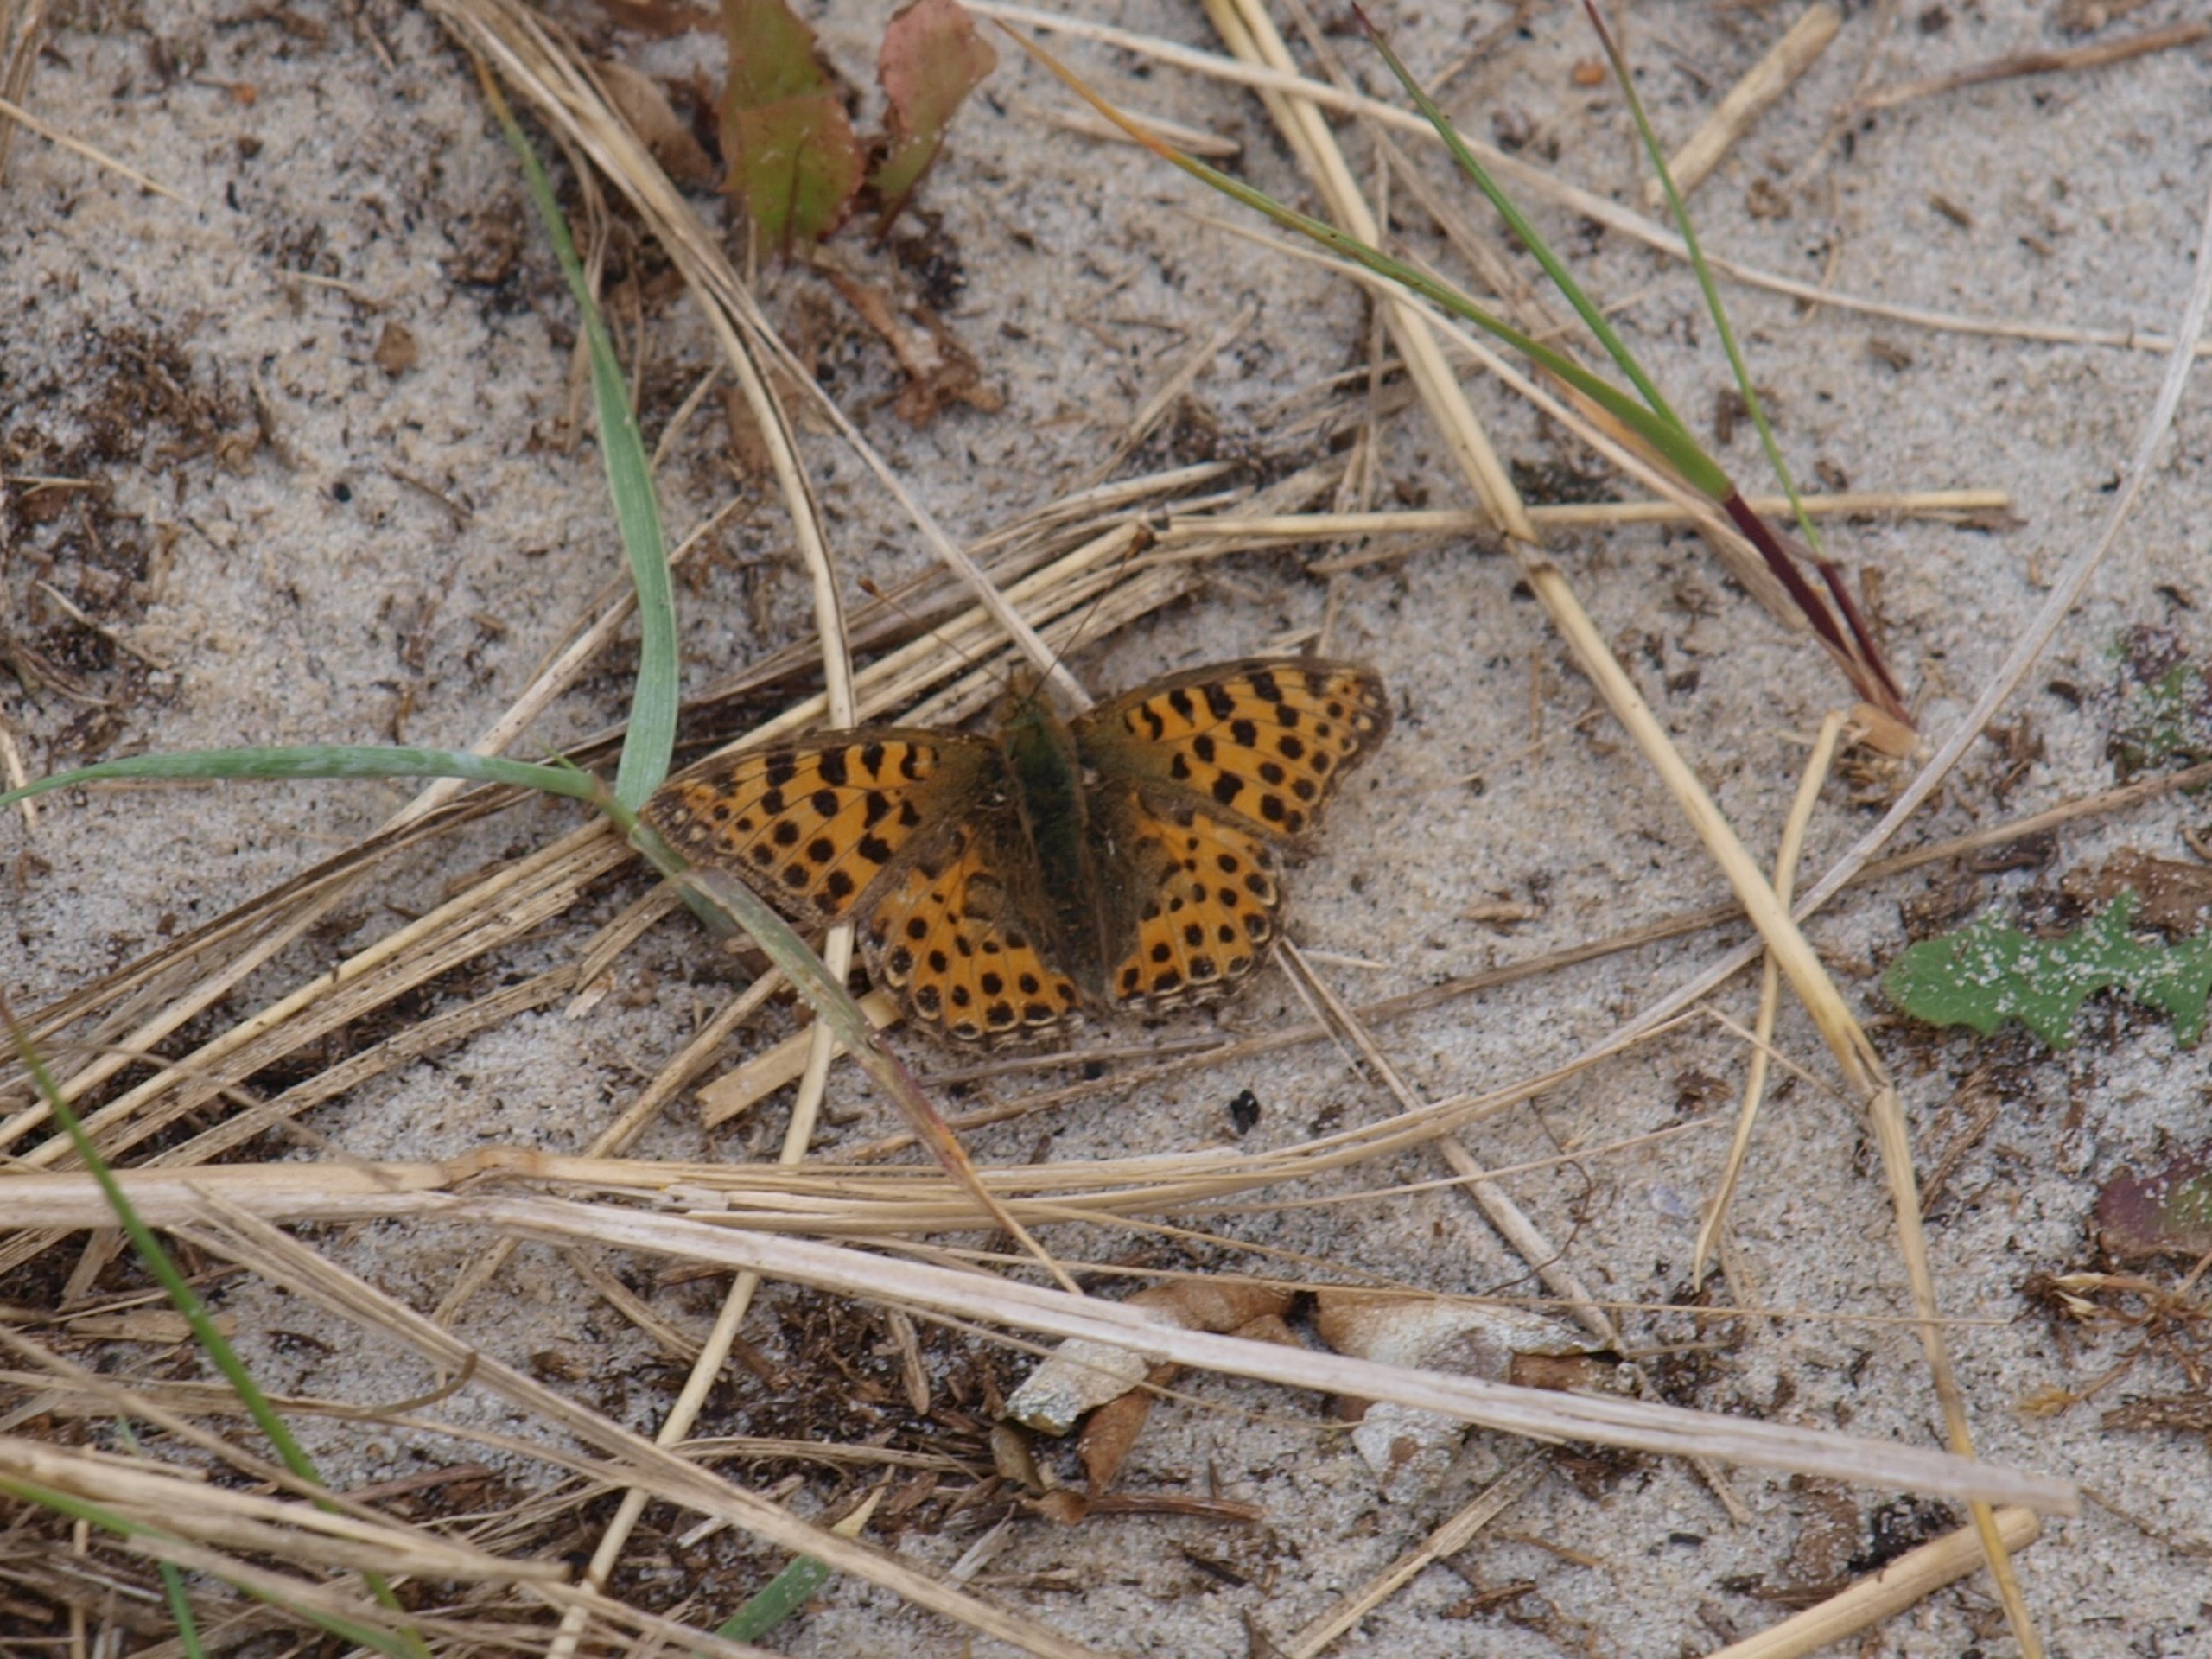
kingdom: Animalia
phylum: Arthropoda
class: Insecta
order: Lepidoptera
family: Nymphalidae
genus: Issoria
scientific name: Issoria lathonia
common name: Storplettet perlemorsommerfugl
